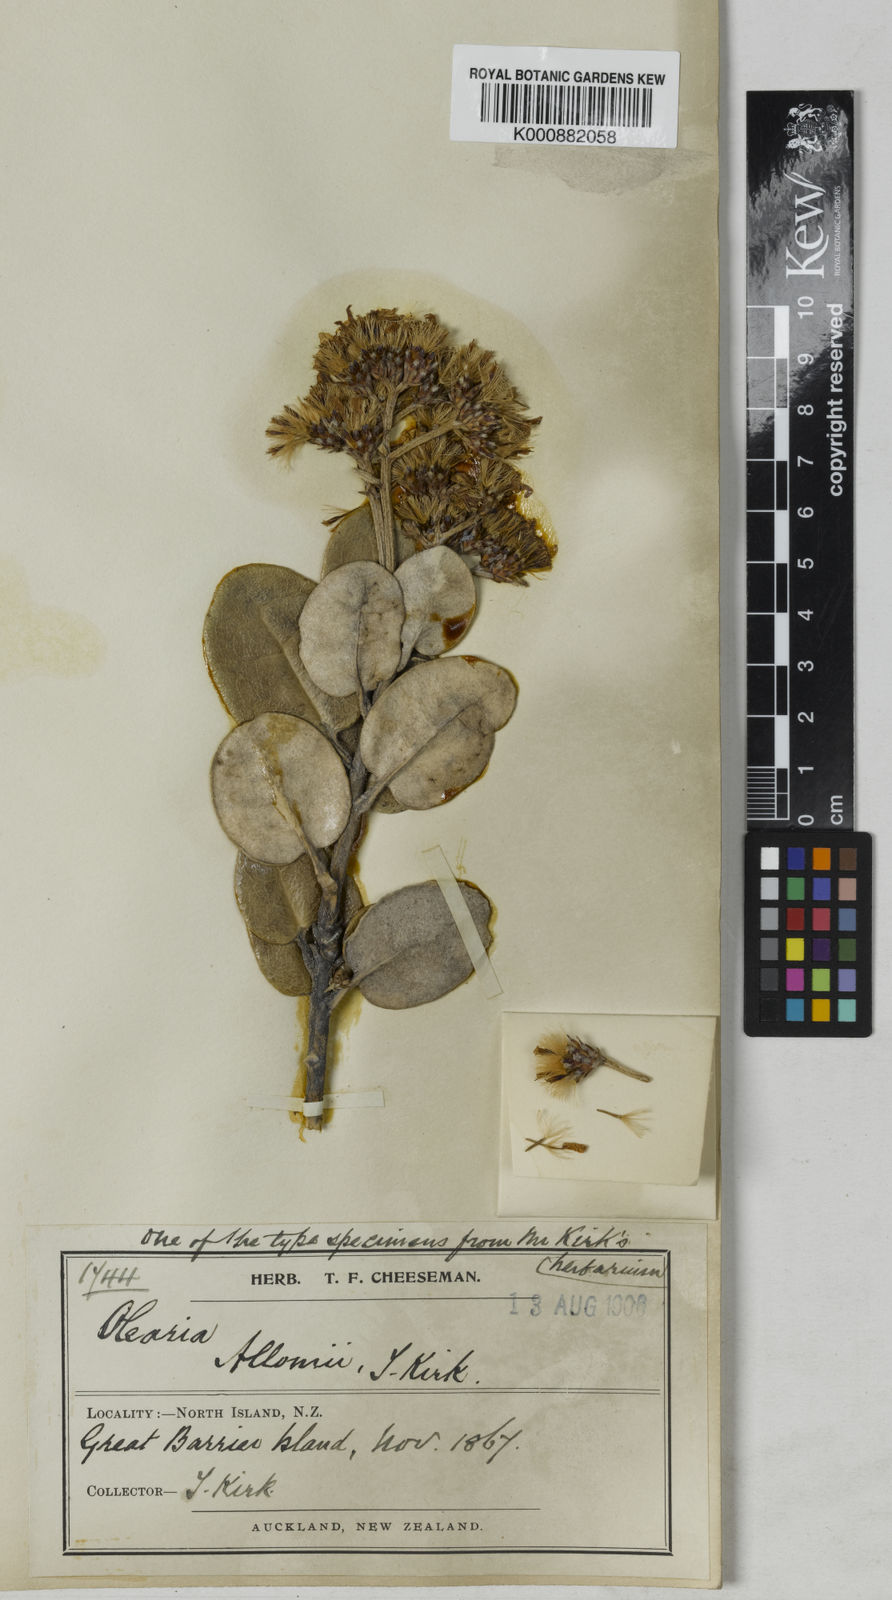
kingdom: Plantae
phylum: Tracheophyta
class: Magnoliopsida
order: Asterales
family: Asteraceae
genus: Olearia
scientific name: Olearia allomii
